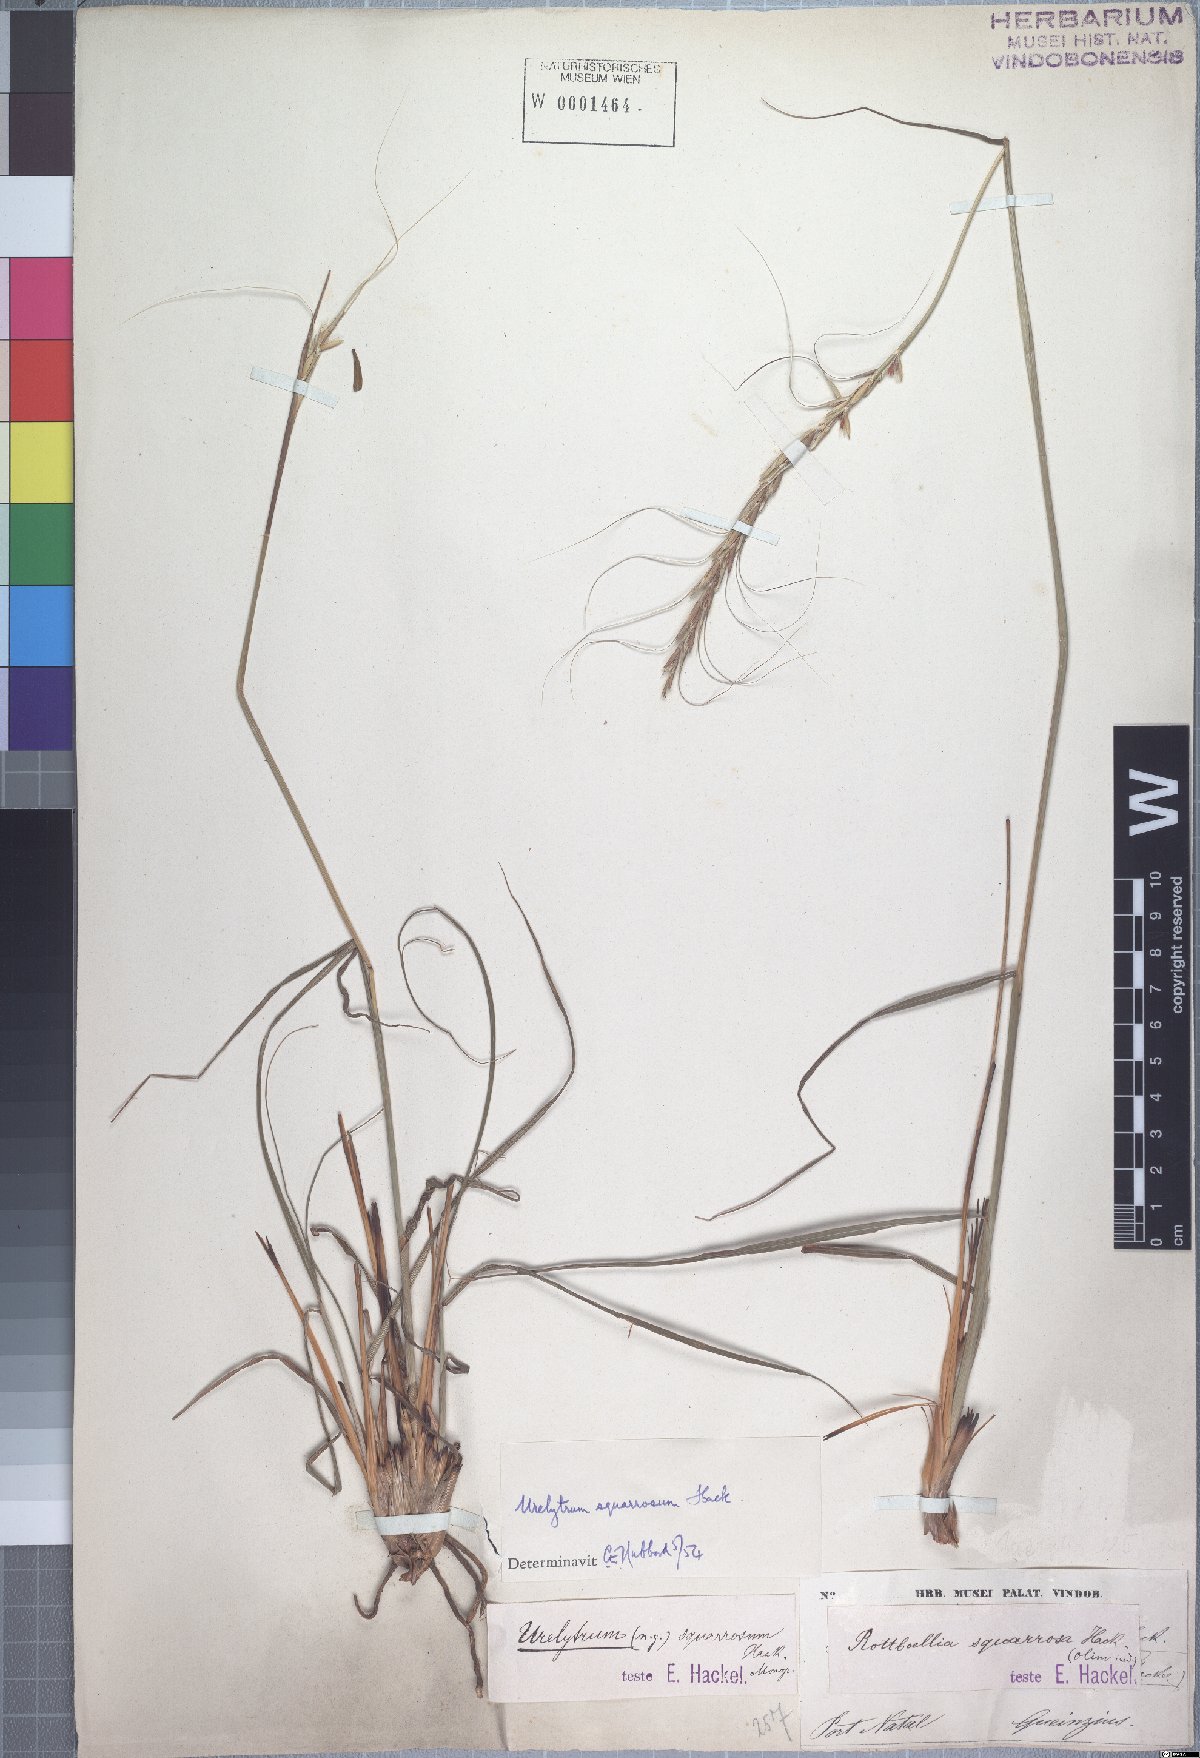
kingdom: Plantae
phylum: Tracheophyta
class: Liliopsida
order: Poales
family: Poaceae
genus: Urelytrum
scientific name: Urelytrum agropyroides
